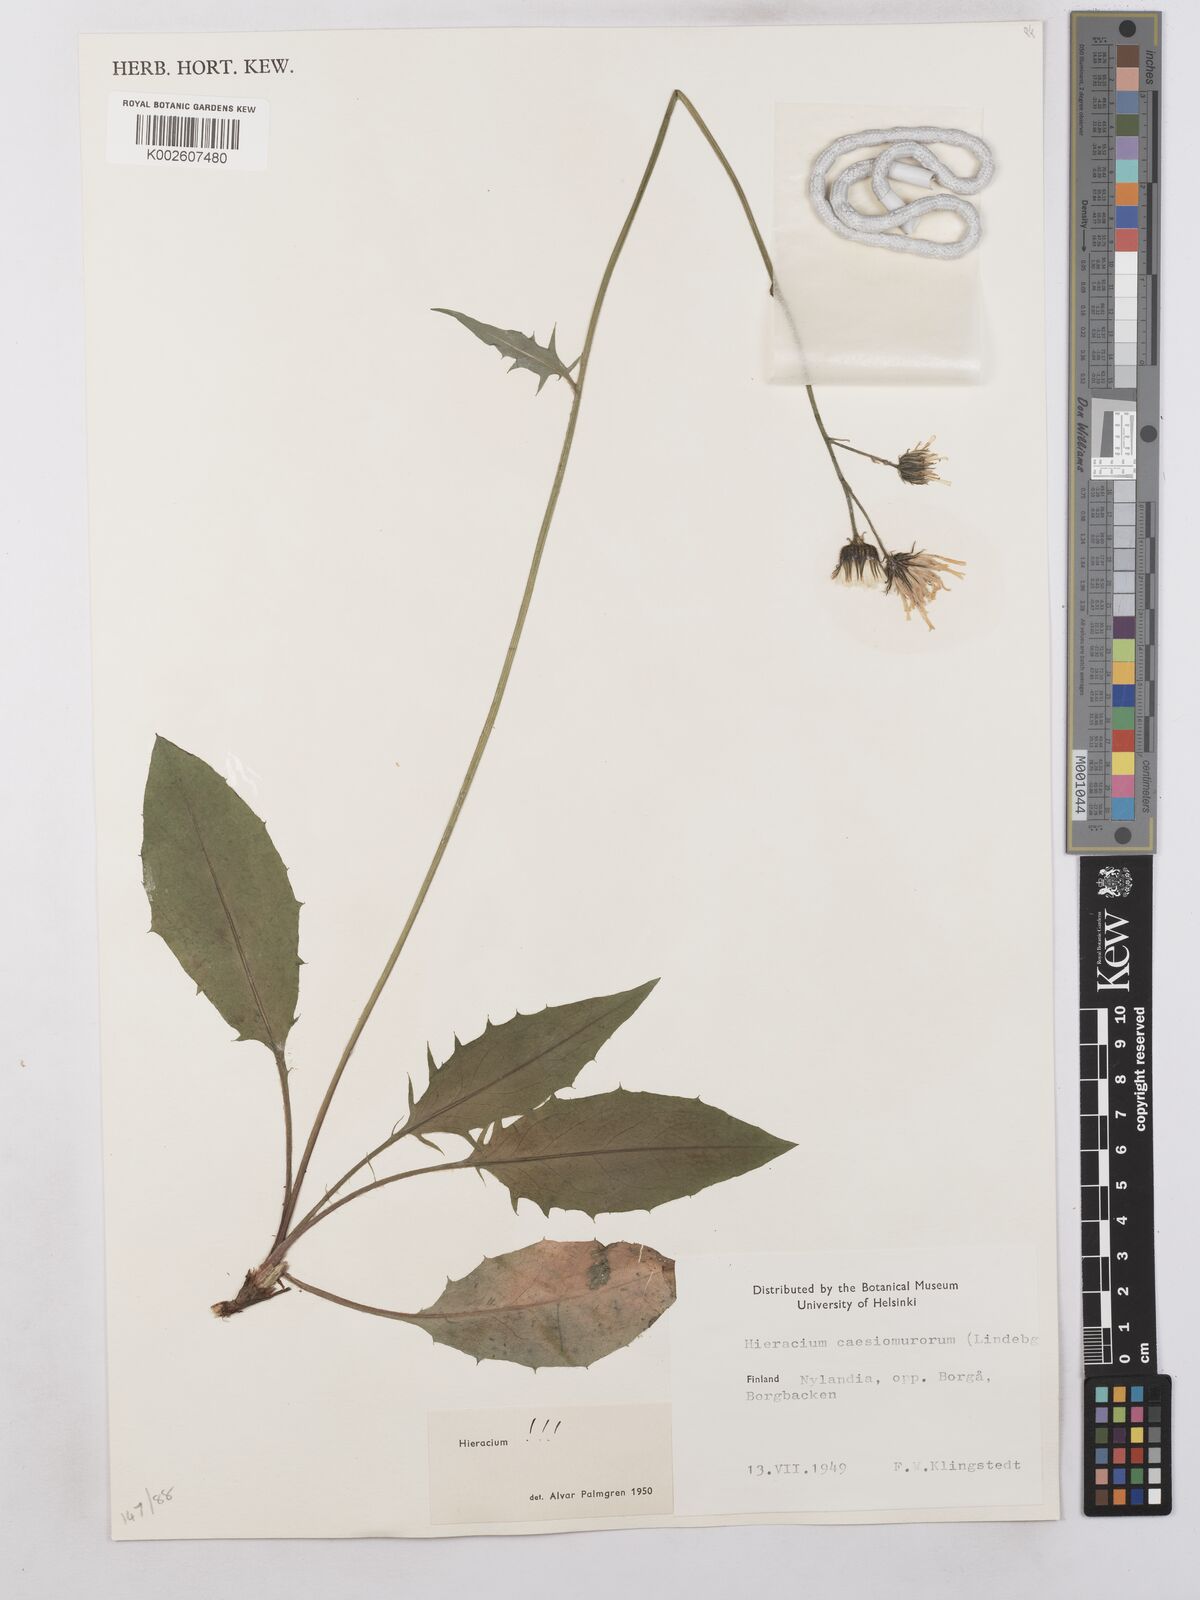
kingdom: Plantae
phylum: Tracheophyta
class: Magnoliopsida
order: Asterales
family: Asteraceae
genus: Hieracium
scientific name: Hieracium caesium
